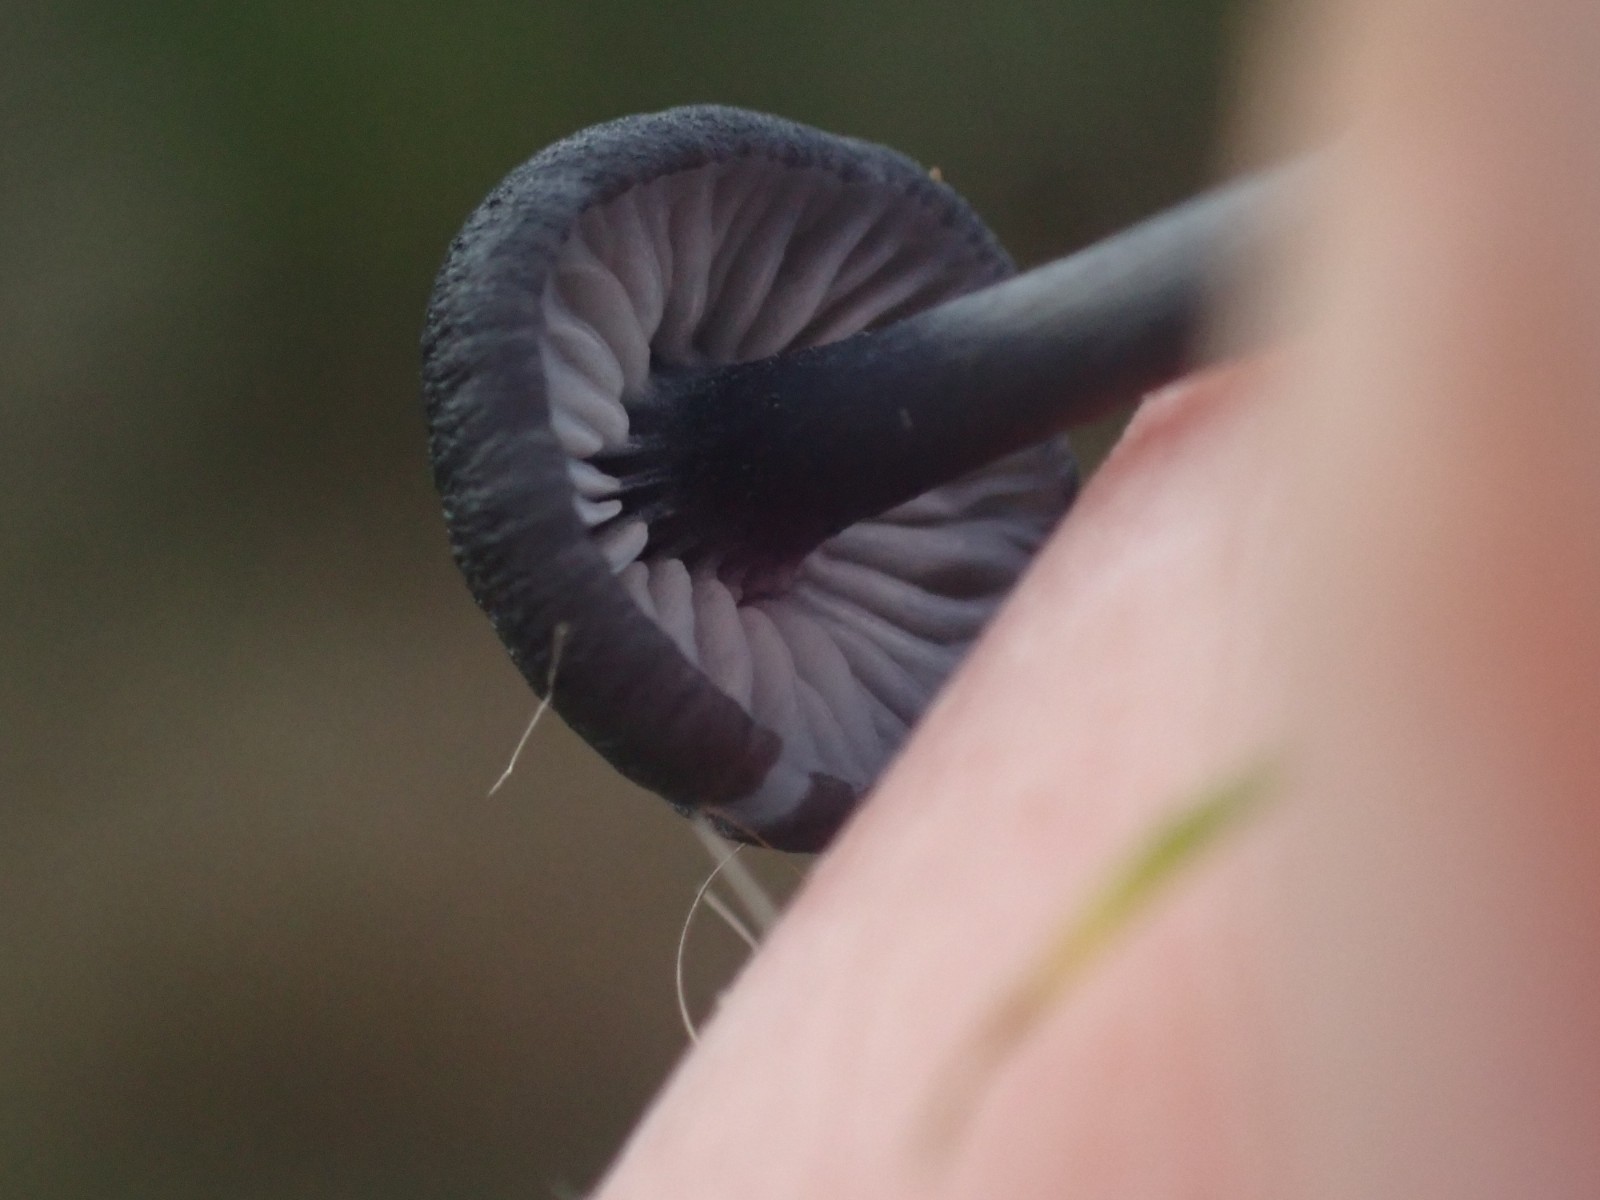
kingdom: Fungi
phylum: Basidiomycota
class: Agaricomycetes
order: Agaricales
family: Entolomataceae
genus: Entoloma
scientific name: Entoloma
